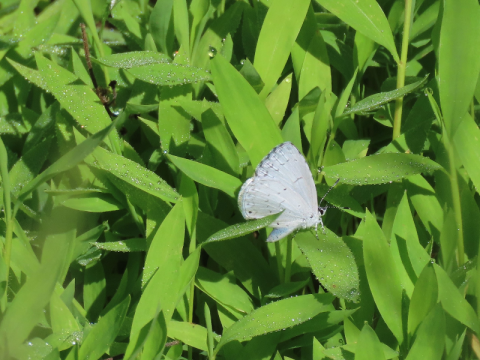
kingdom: Animalia
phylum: Arthropoda
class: Insecta
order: Lepidoptera
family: Lycaenidae
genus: Cyaniris
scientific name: Cyaniris neglecta
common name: Summer Azure
